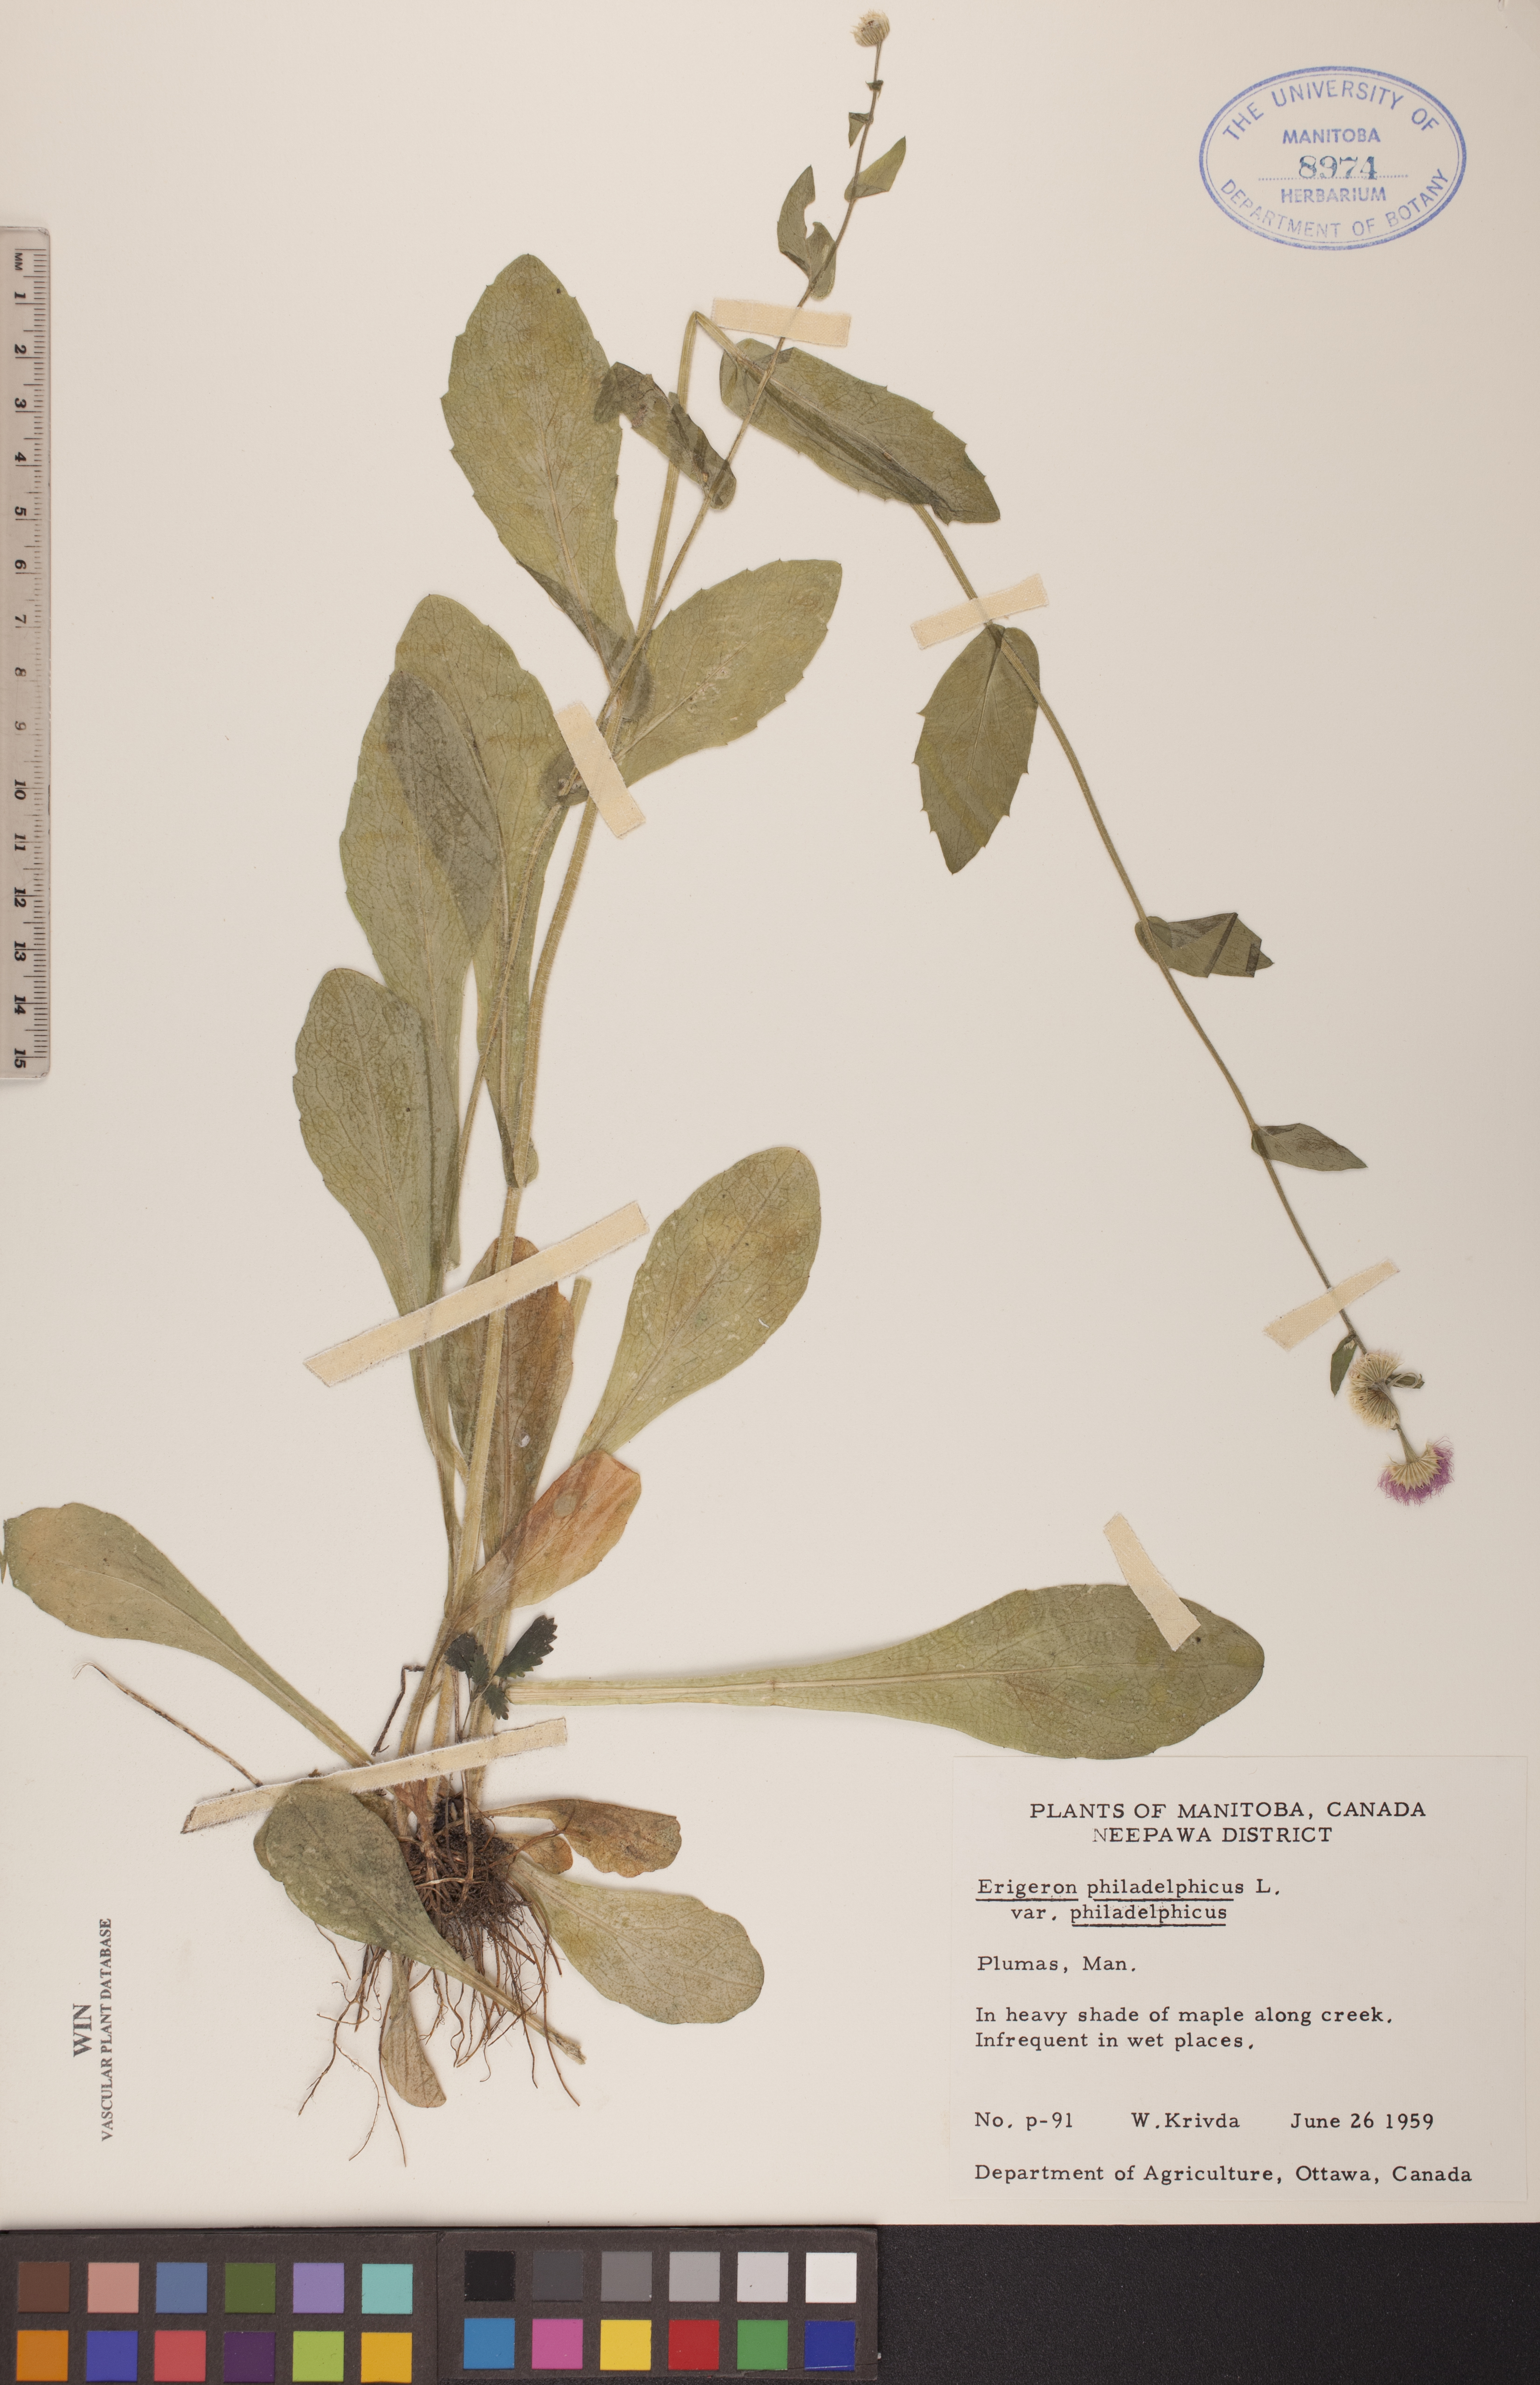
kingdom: Plantae
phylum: Tracheophyta
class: Magnoliopsida
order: Asterales
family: Asteraceae
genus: Erigeron
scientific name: Erigeron philadelphicus
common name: Robin's-plantain
